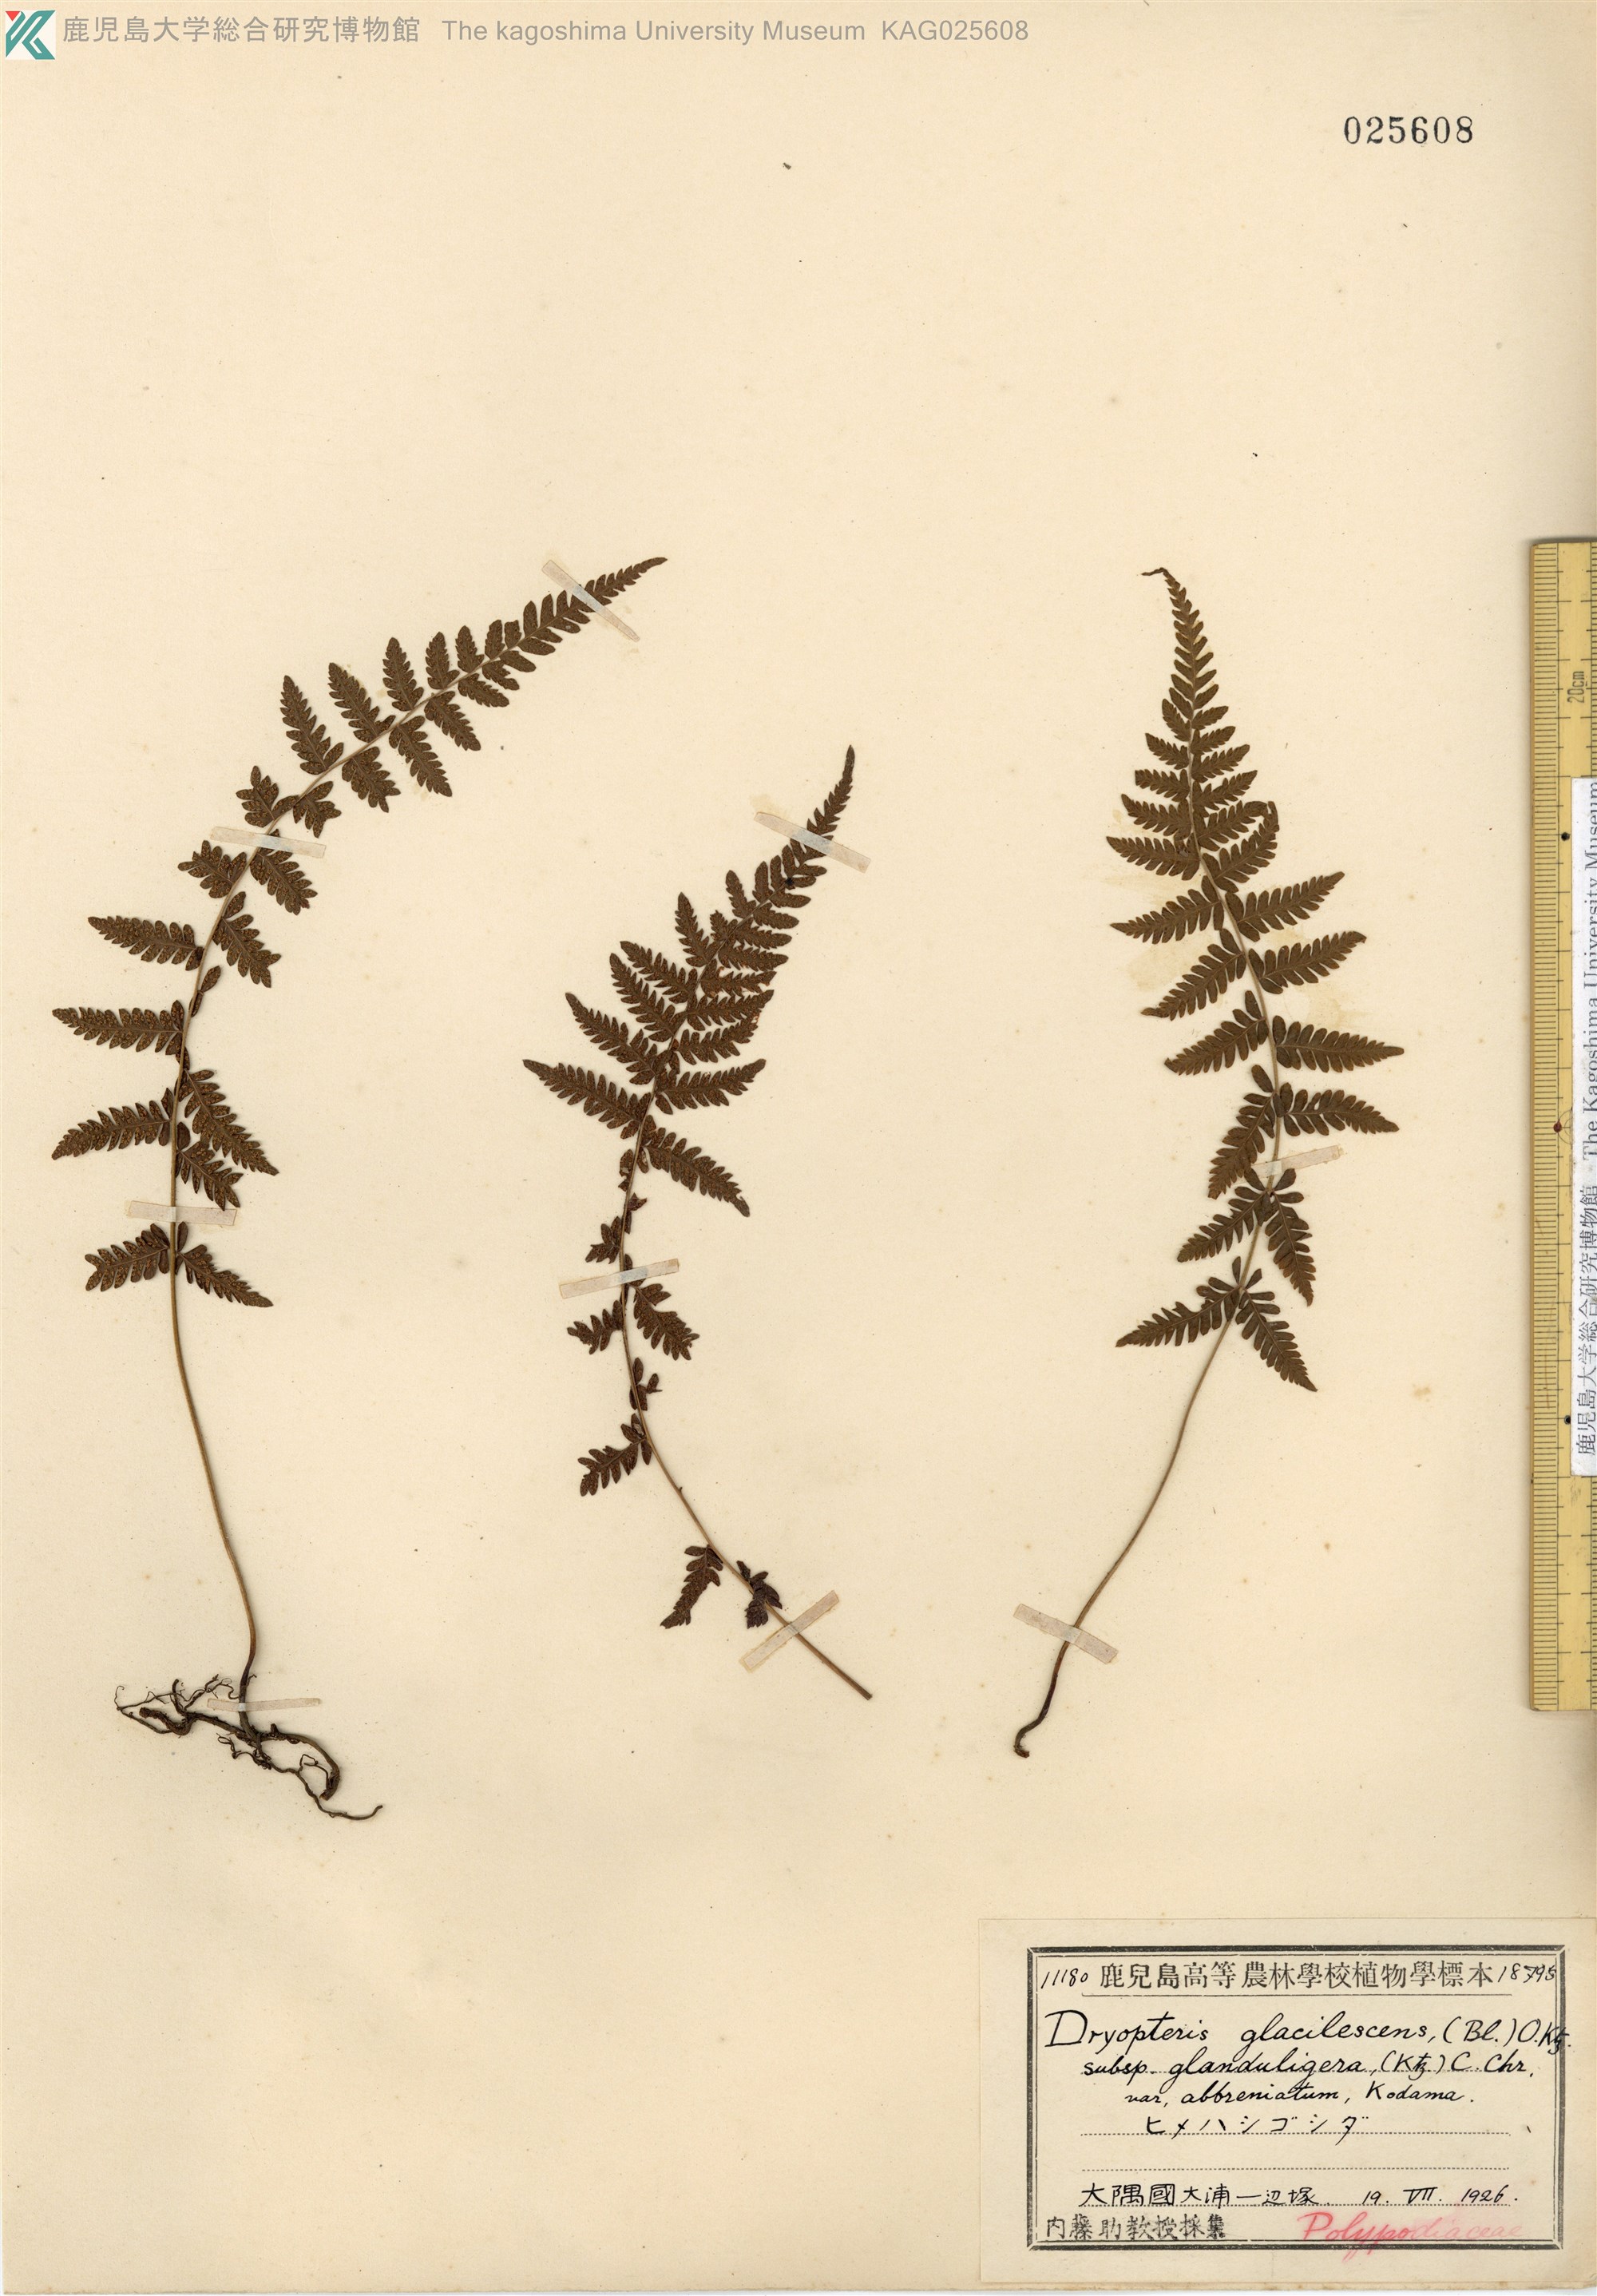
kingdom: Plantae
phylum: Tracheophyta
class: Polypodiopsida
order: Polypodiales
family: Thelypteridaceae
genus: Amauropelta
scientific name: Amauropelta angustifrons
